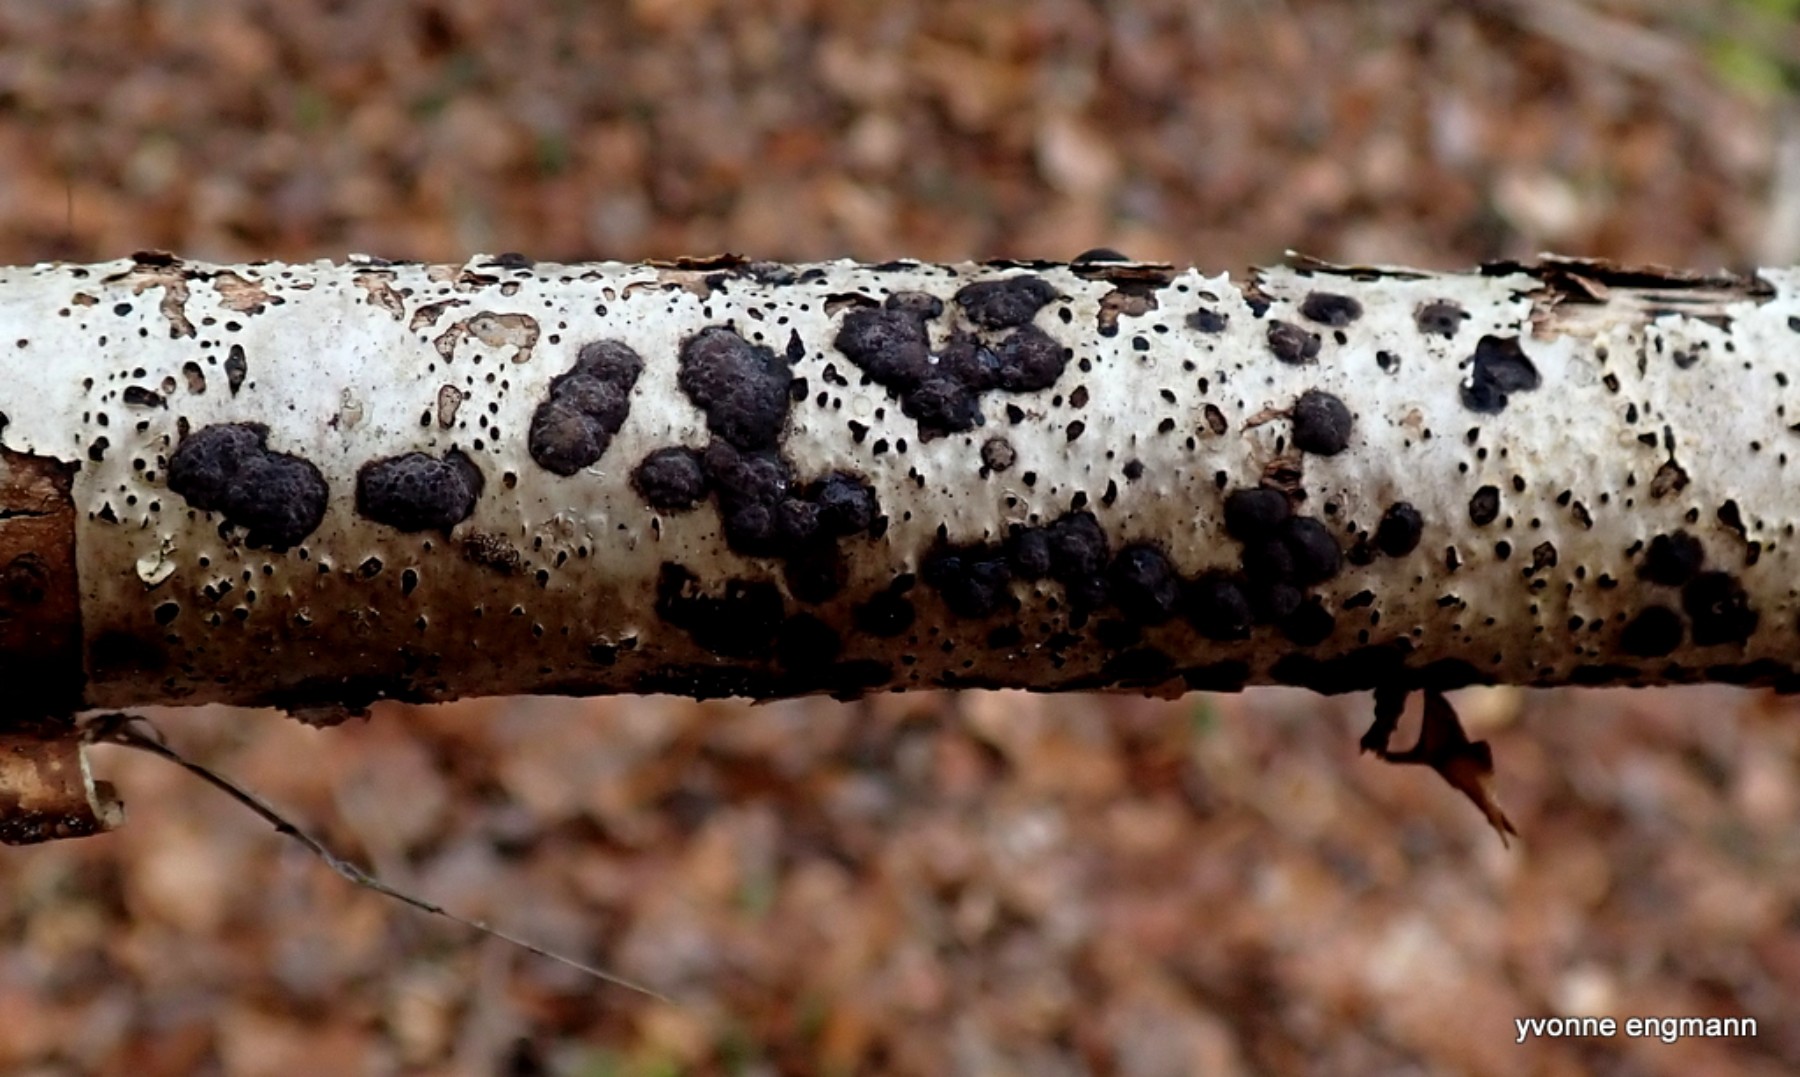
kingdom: Fungi
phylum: Ascomycota
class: Sordariomycetes
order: Xylariales
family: Hypoxylaceae
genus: Hypoxylon
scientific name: Hypoxylon fuscum
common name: kegleformet kulbær
